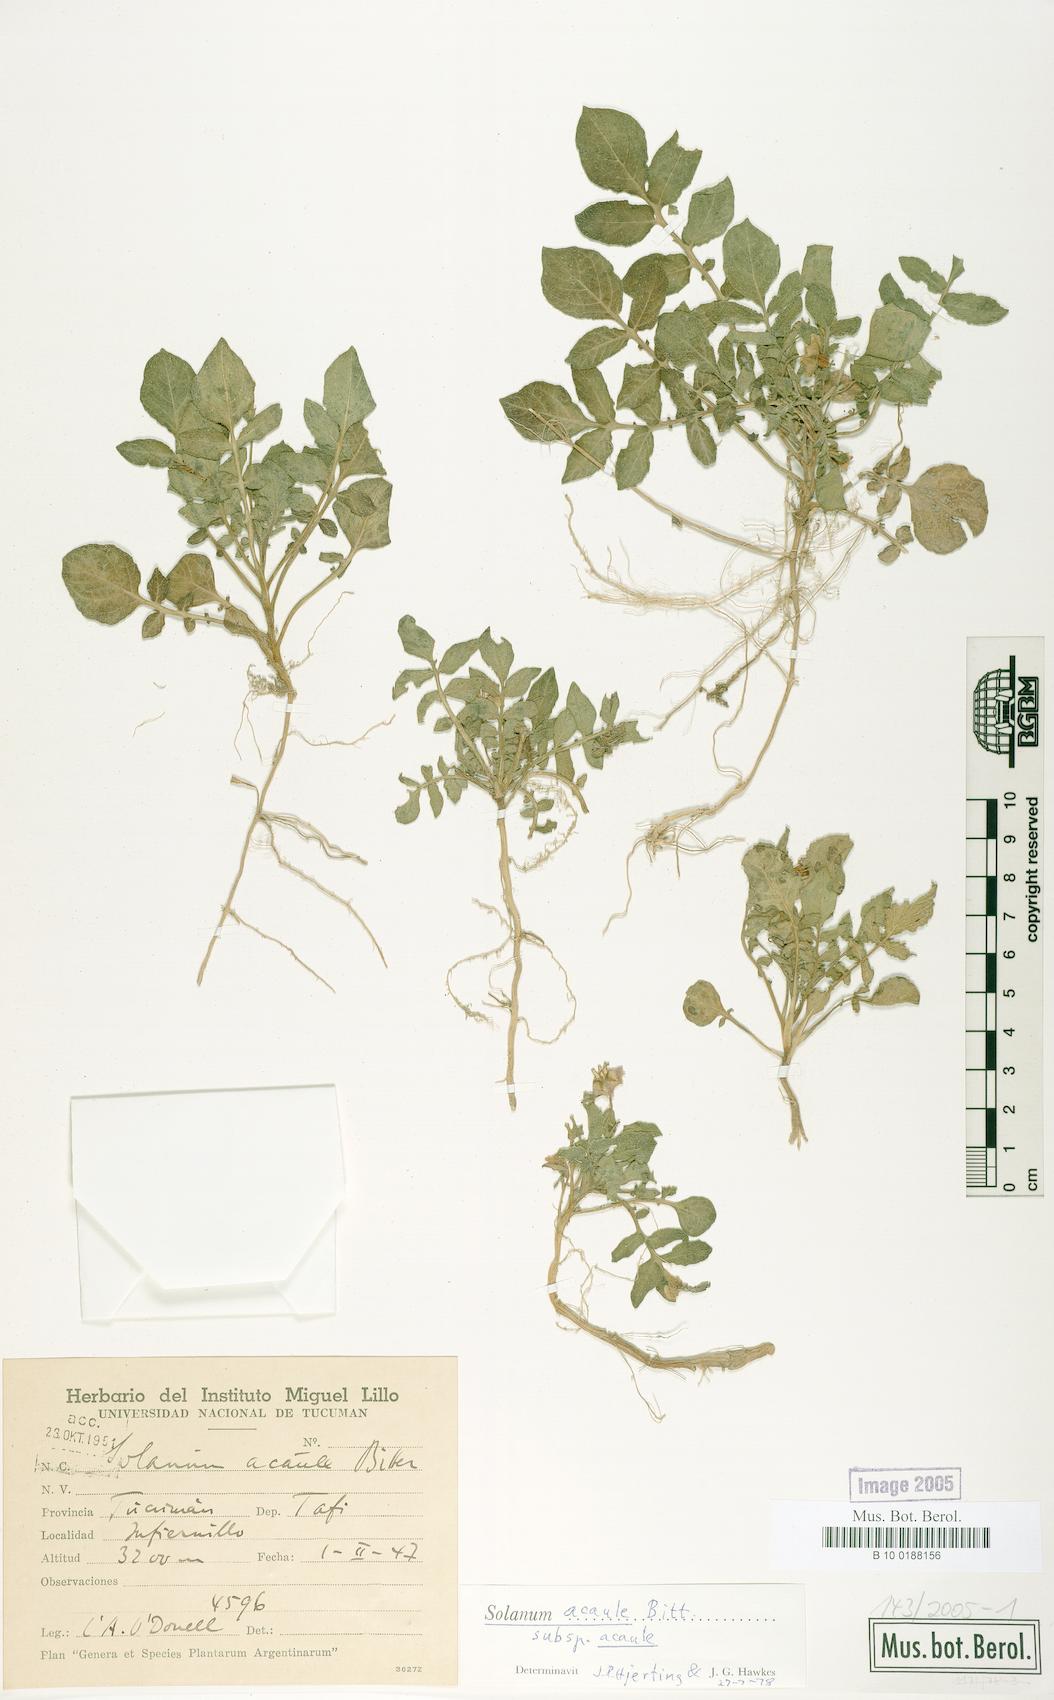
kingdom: Plantae
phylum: Tracheophyta
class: Magnoliopsida
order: Solanales
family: Solanaceae
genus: Solanum
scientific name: Solanum acaule
